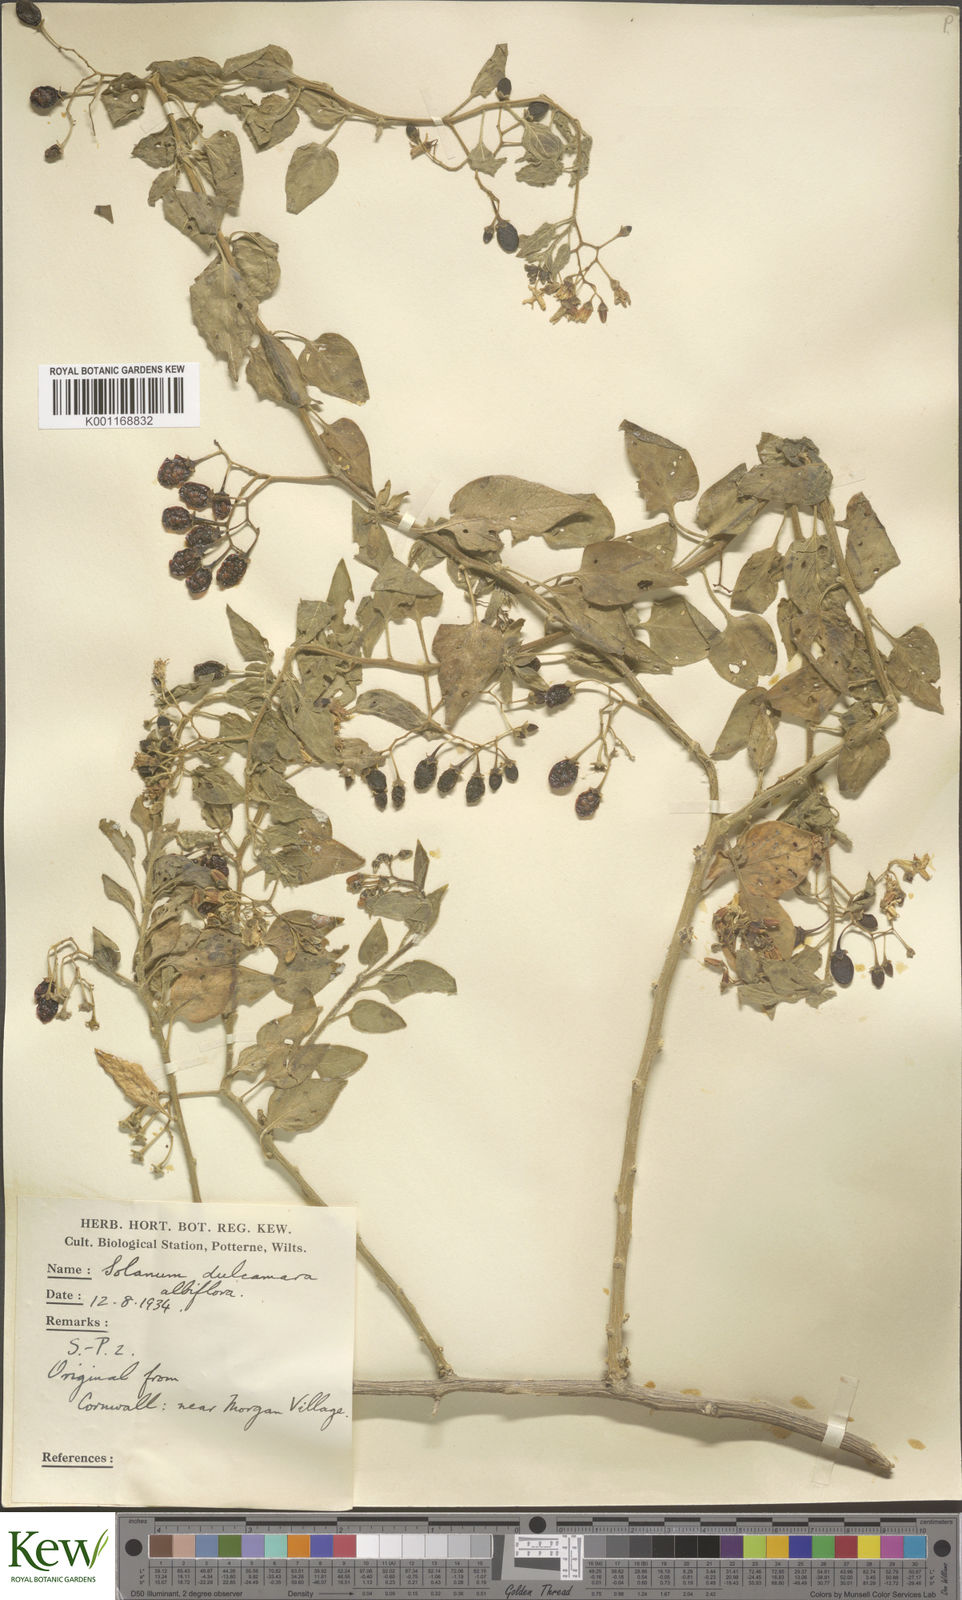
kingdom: Plantae
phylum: Tracheophyta
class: Magnoliopsida
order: Solanales
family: Solanaceae
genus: Solanum
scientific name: Solanum dulcamara
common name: Climbing nightshade
